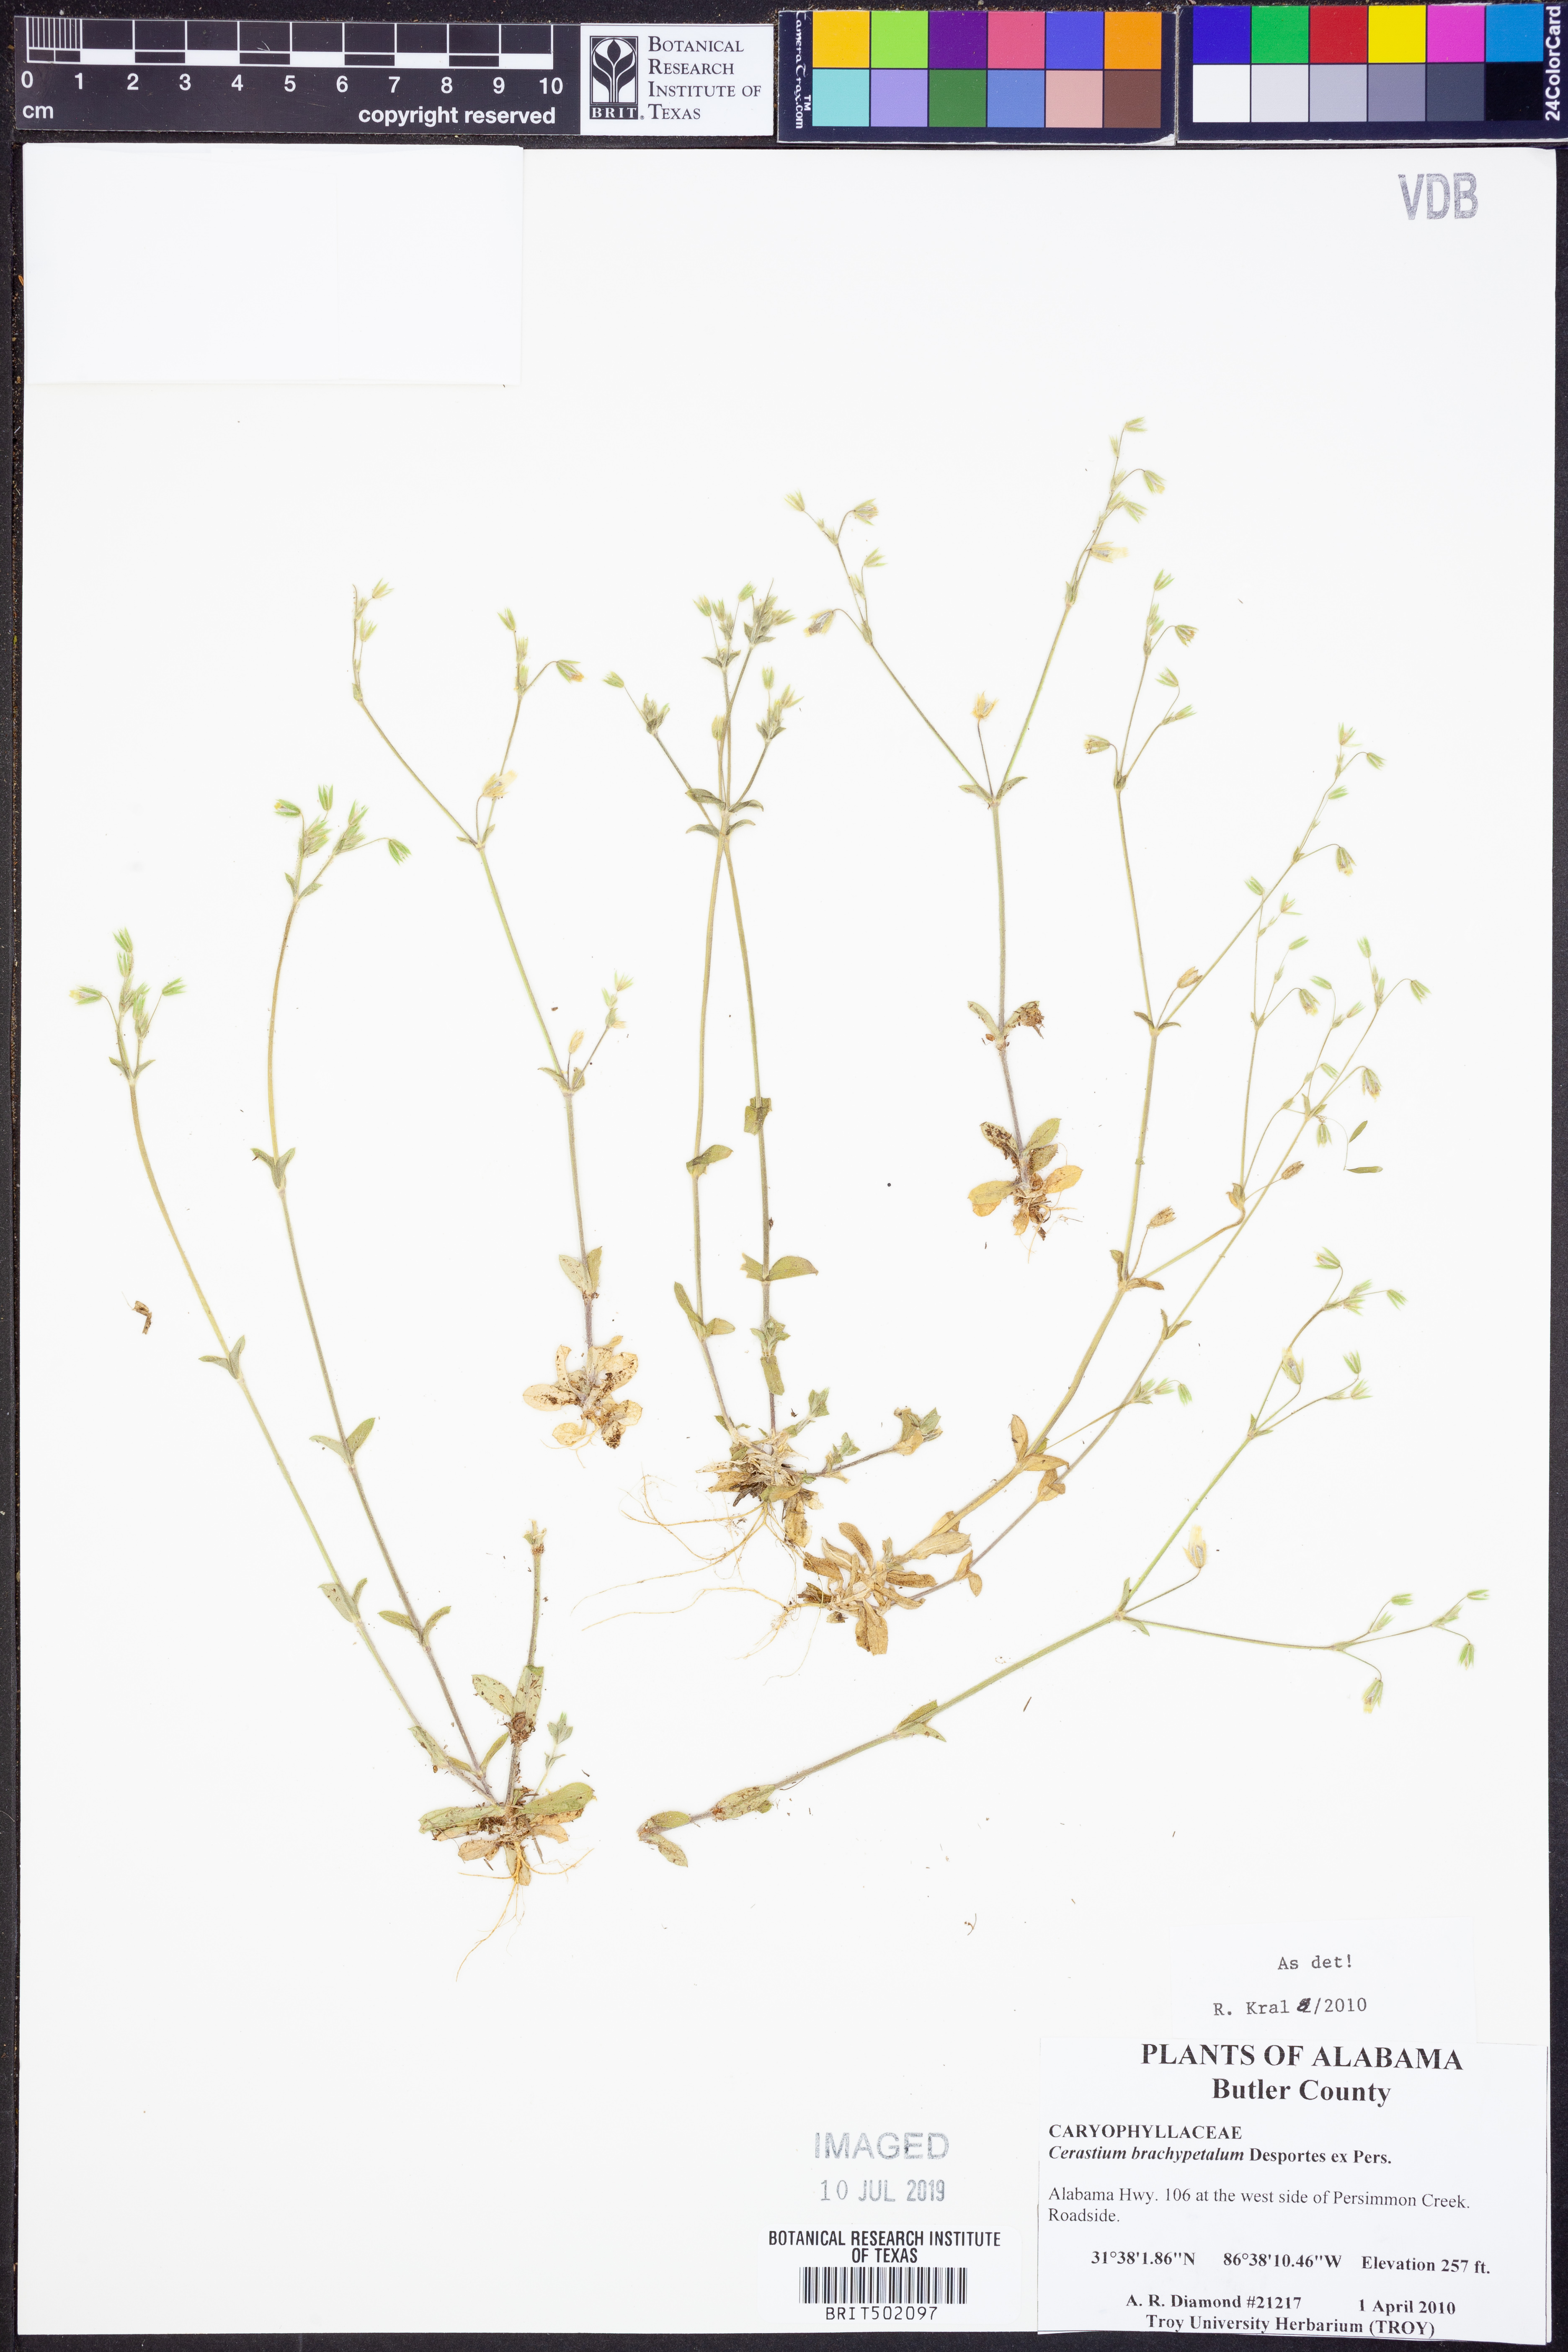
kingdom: Plantae
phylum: Tracheophyta
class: Magnoliopsida
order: Caryophyllales
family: Caryophyllaceae
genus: Cerastium
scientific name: Cerastium brachypetalum
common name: Grey mouse-ear
